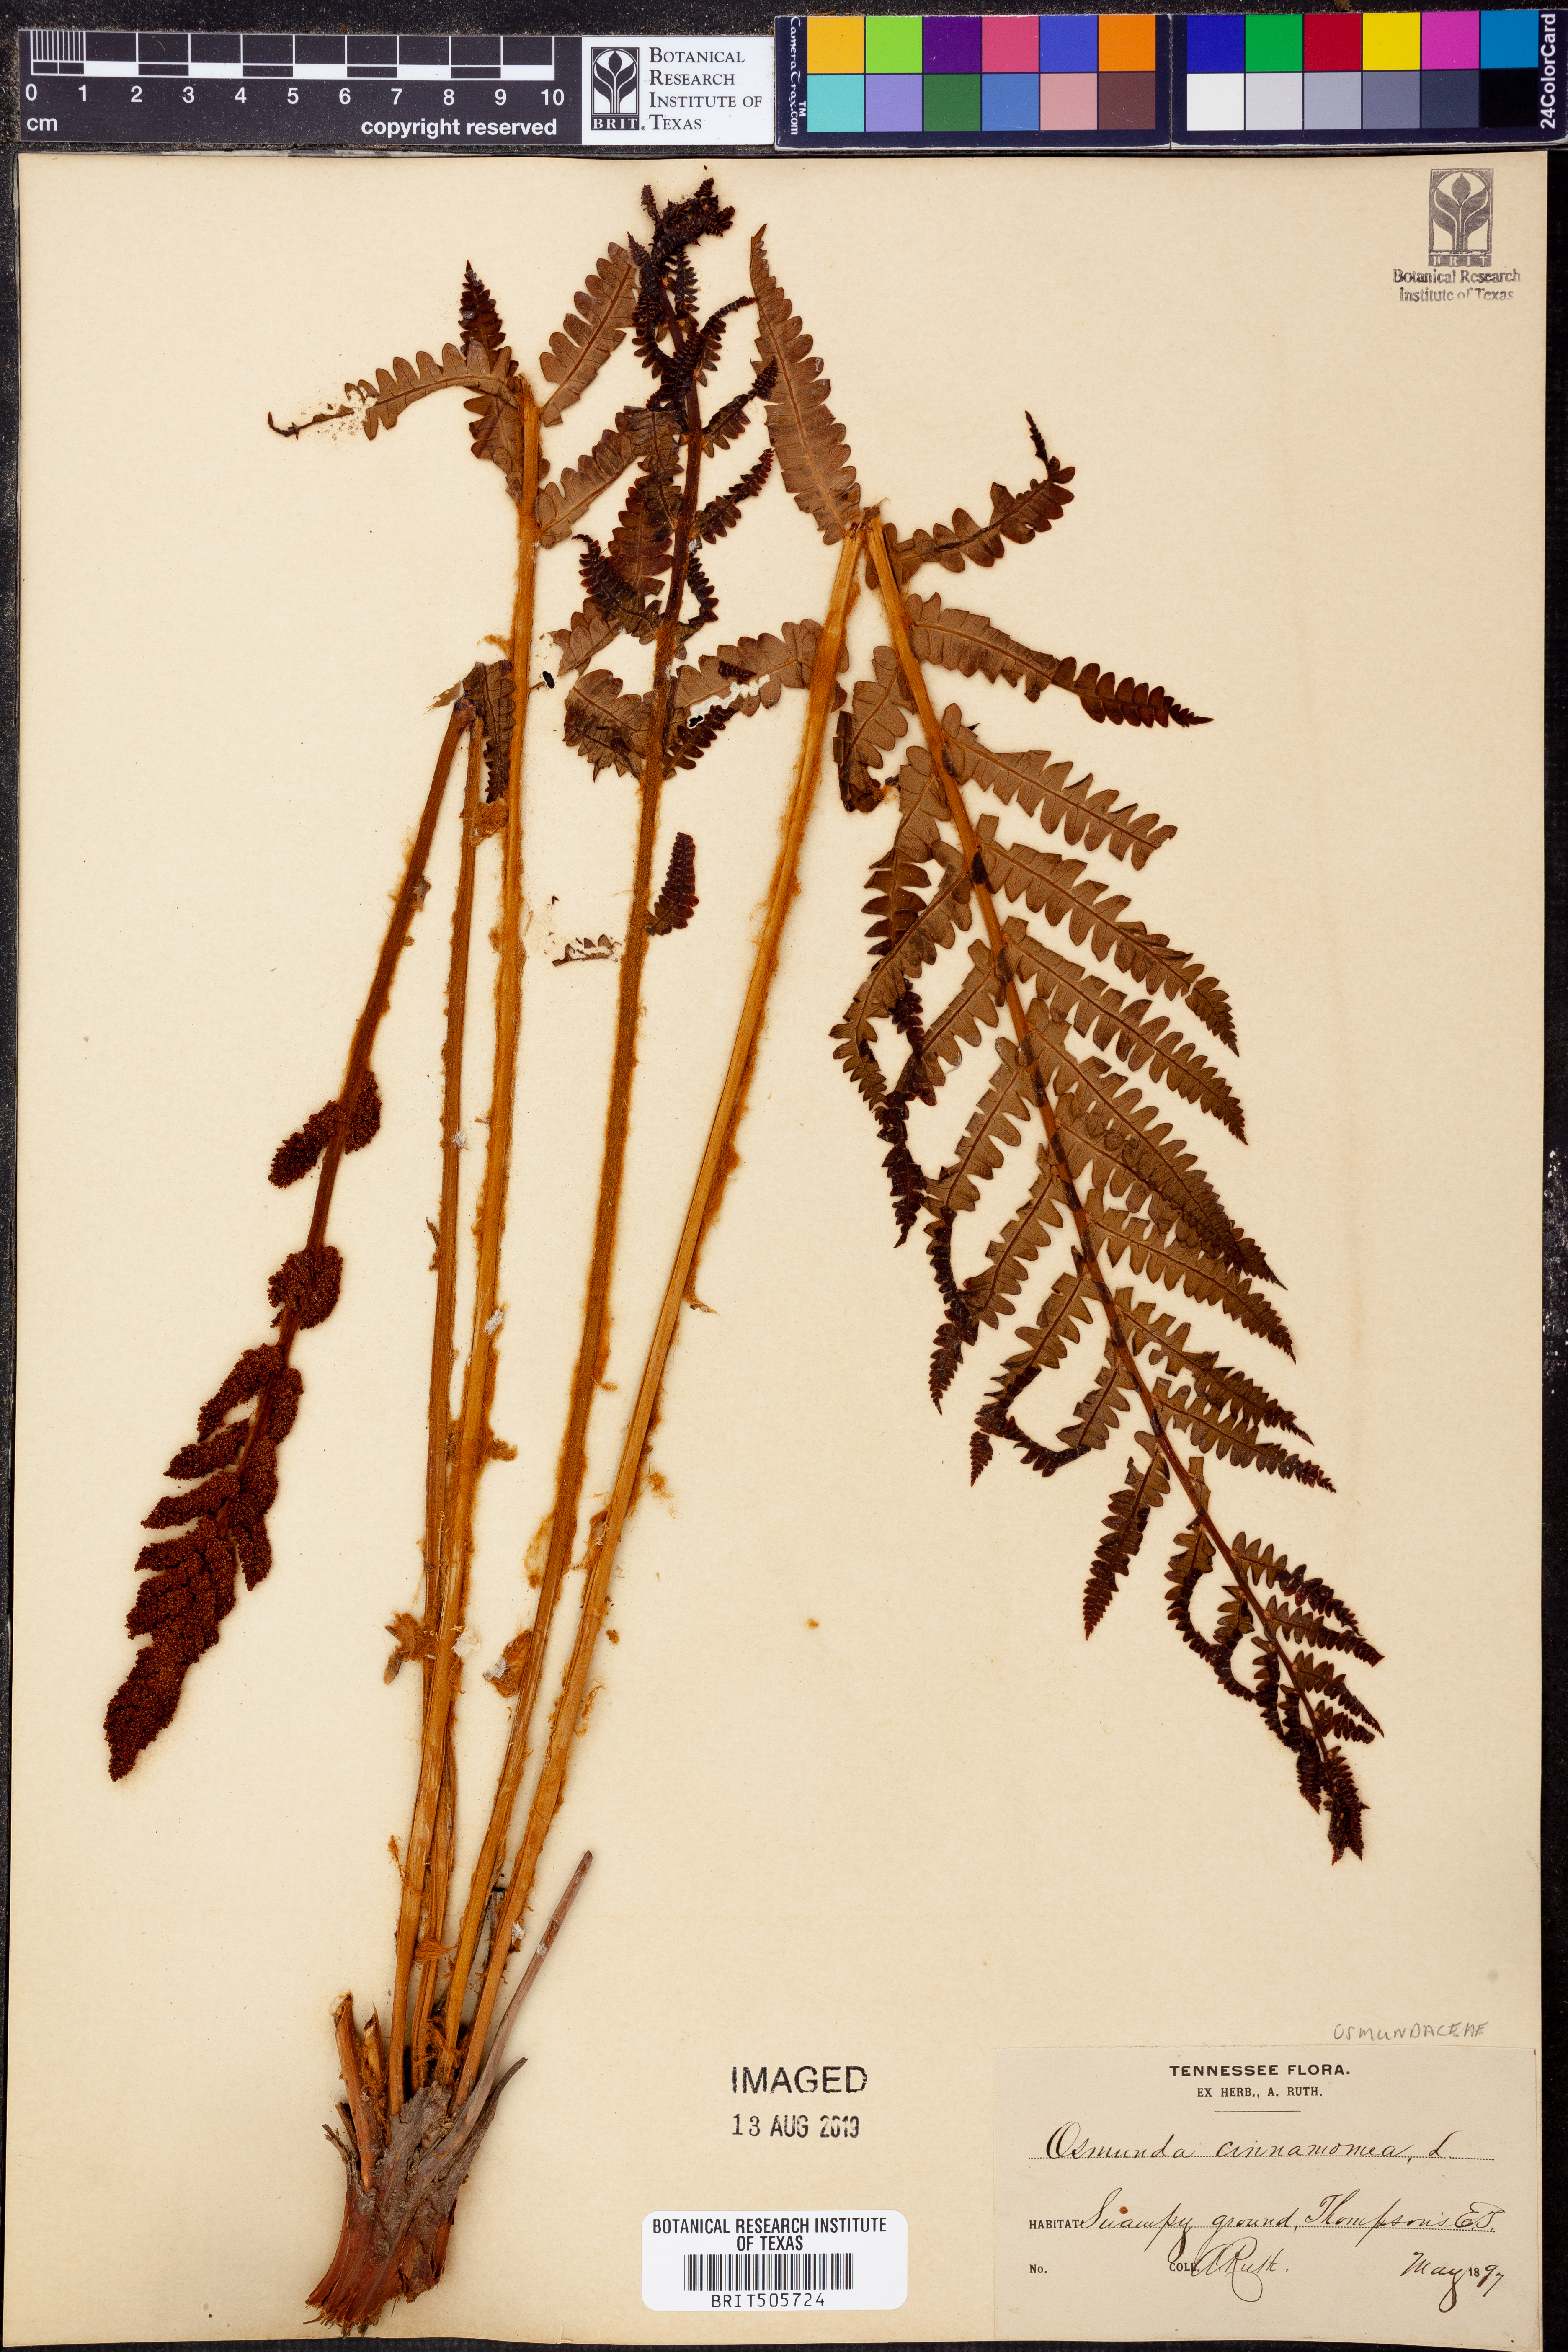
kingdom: Plantae
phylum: Tracheophyta
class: Polypodiopsida
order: Osmundales
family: Osmundaceae
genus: Osmundastrum
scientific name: Osmundastrum cinnamomeum
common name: Cinnamon fern
